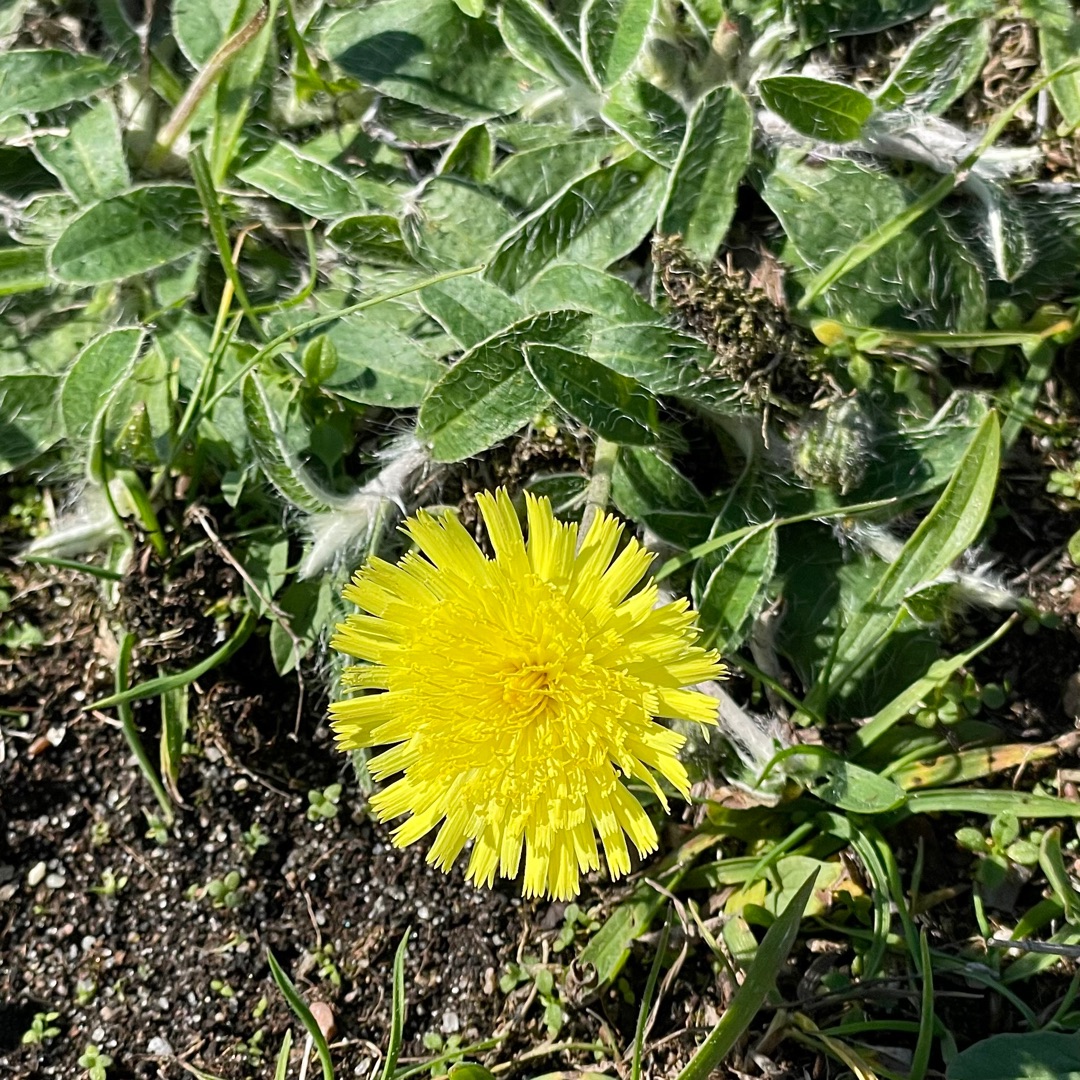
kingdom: Plantae
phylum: Tracheophyta
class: Magnoliopsida
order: Asterales
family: Asteraceae
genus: Pilosella
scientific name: Pilosella officinarum
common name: Håret høgeurt
